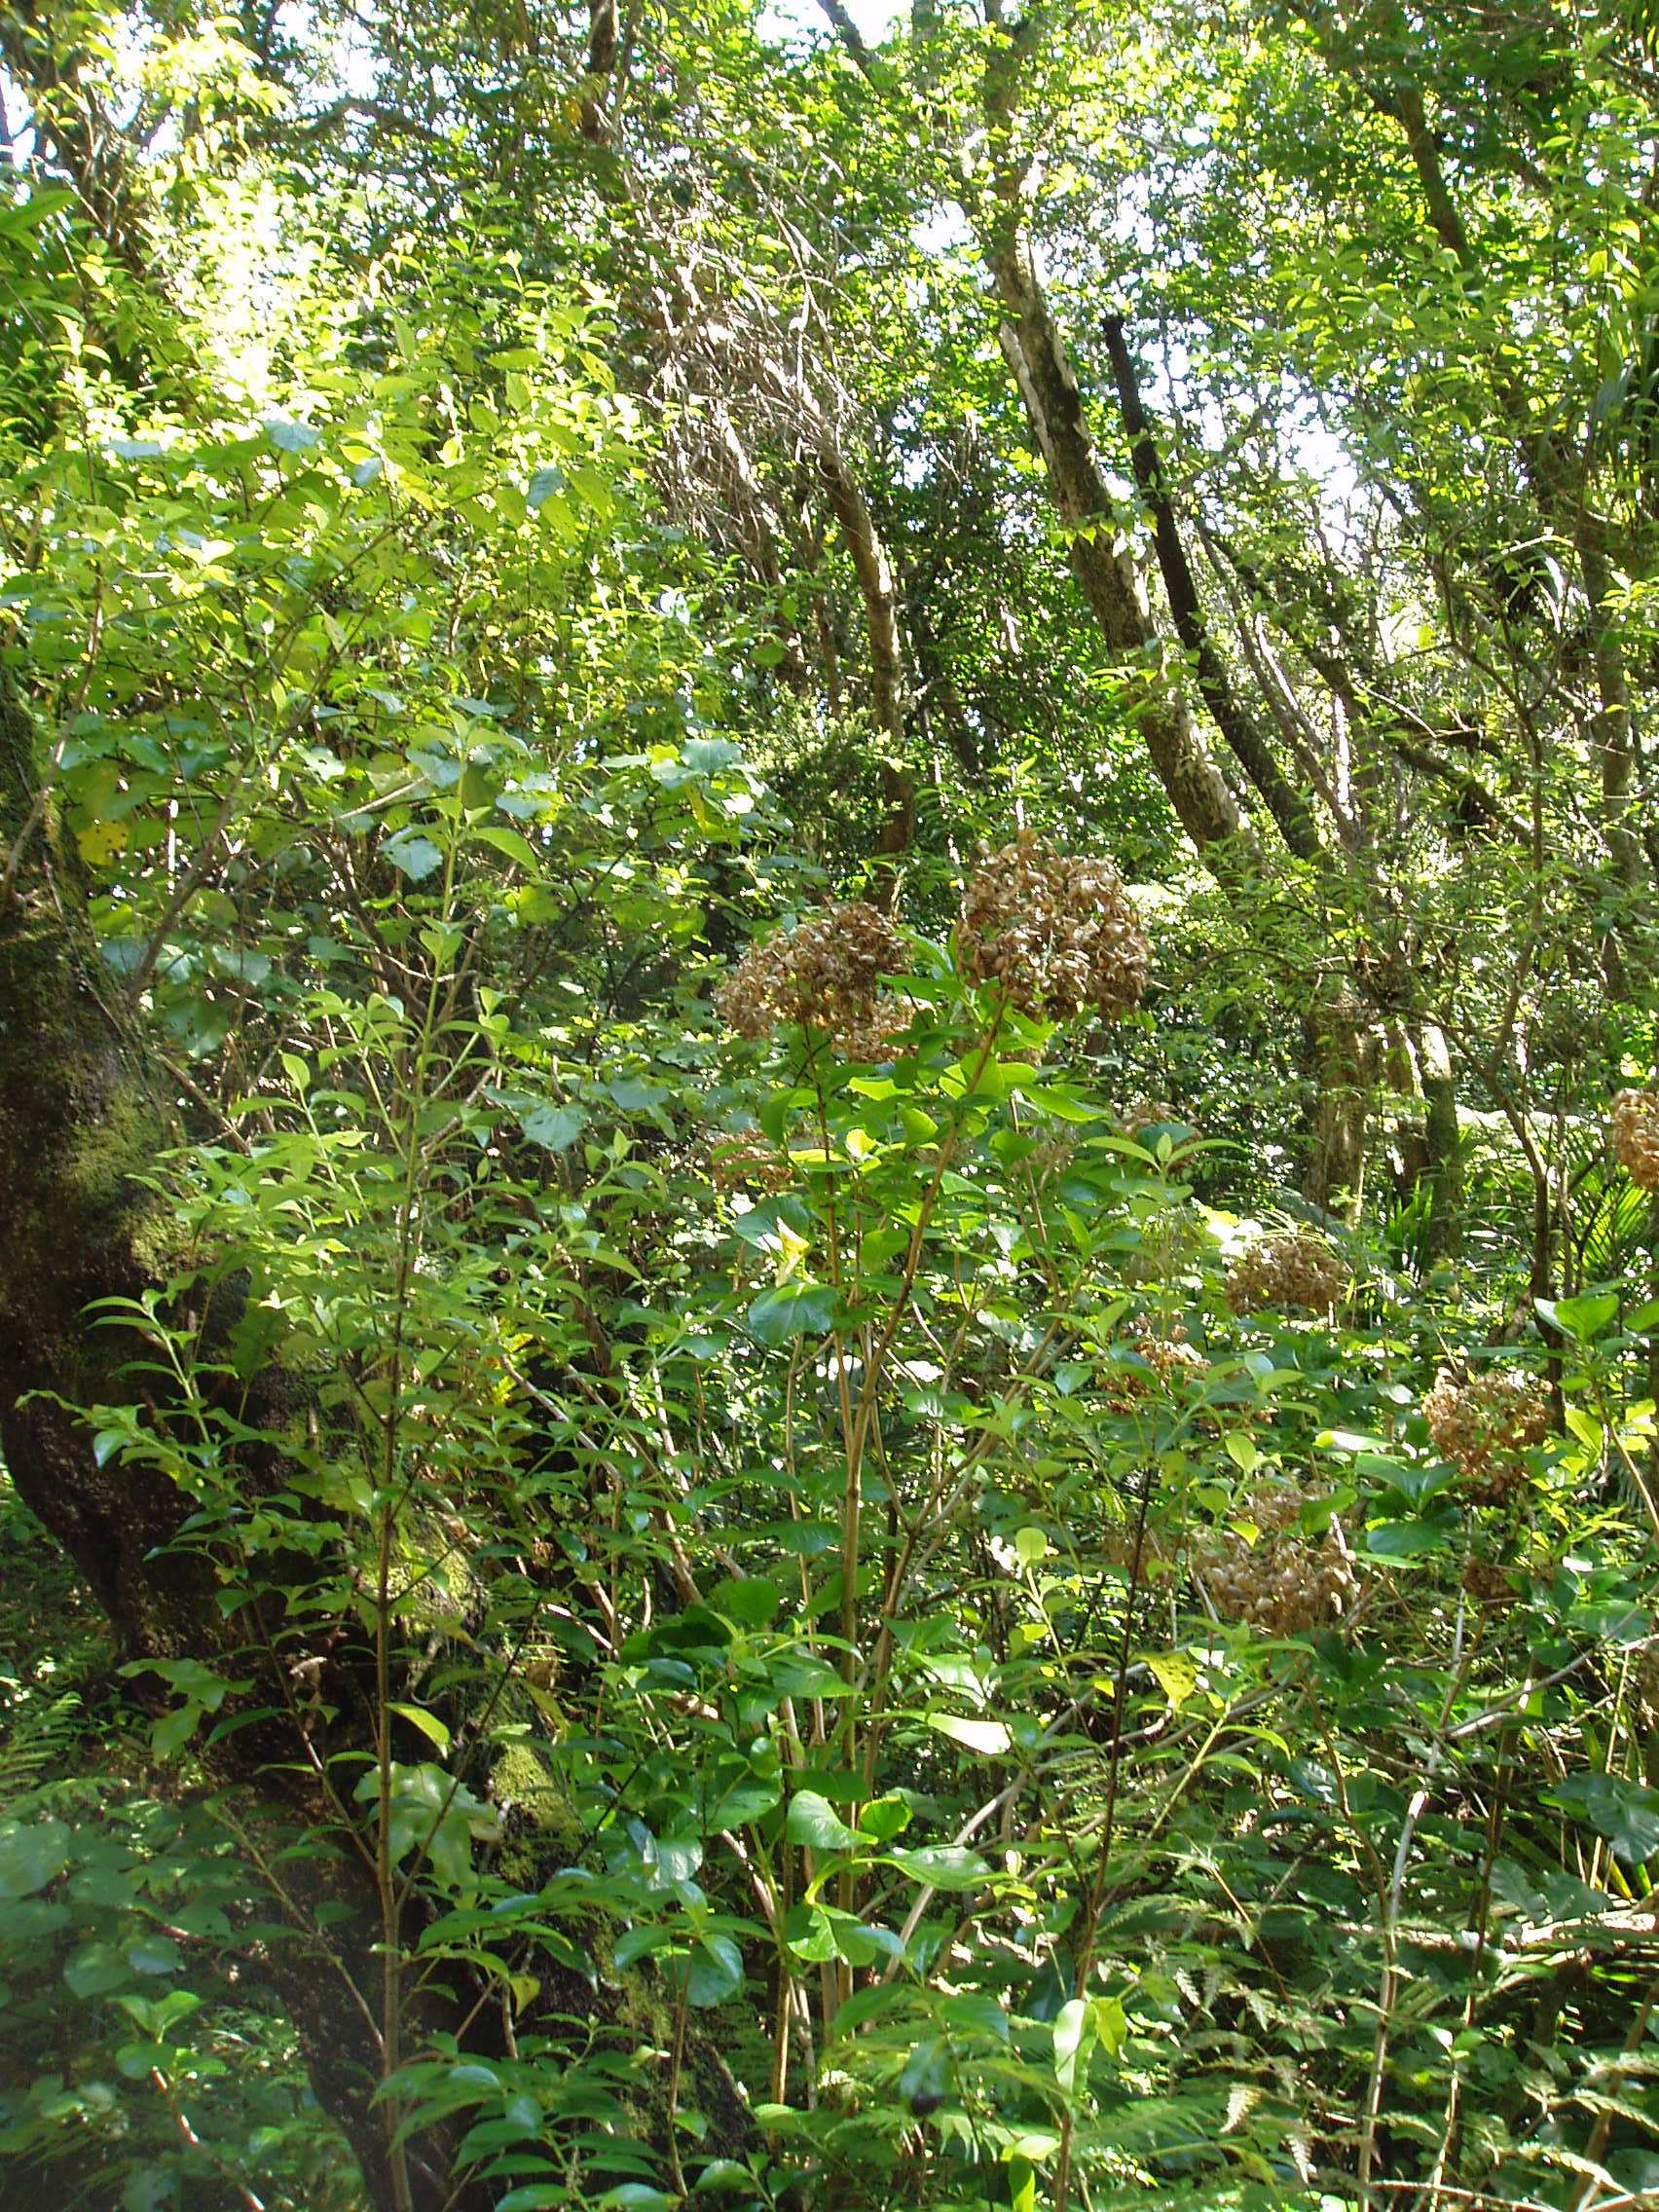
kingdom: Plantae
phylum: Tracheophyta
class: Magnoliopsida
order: Cornales
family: Hydrangeaceae
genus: Hydrangea
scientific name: Hydrangea macrophylla
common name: Hydrangea
